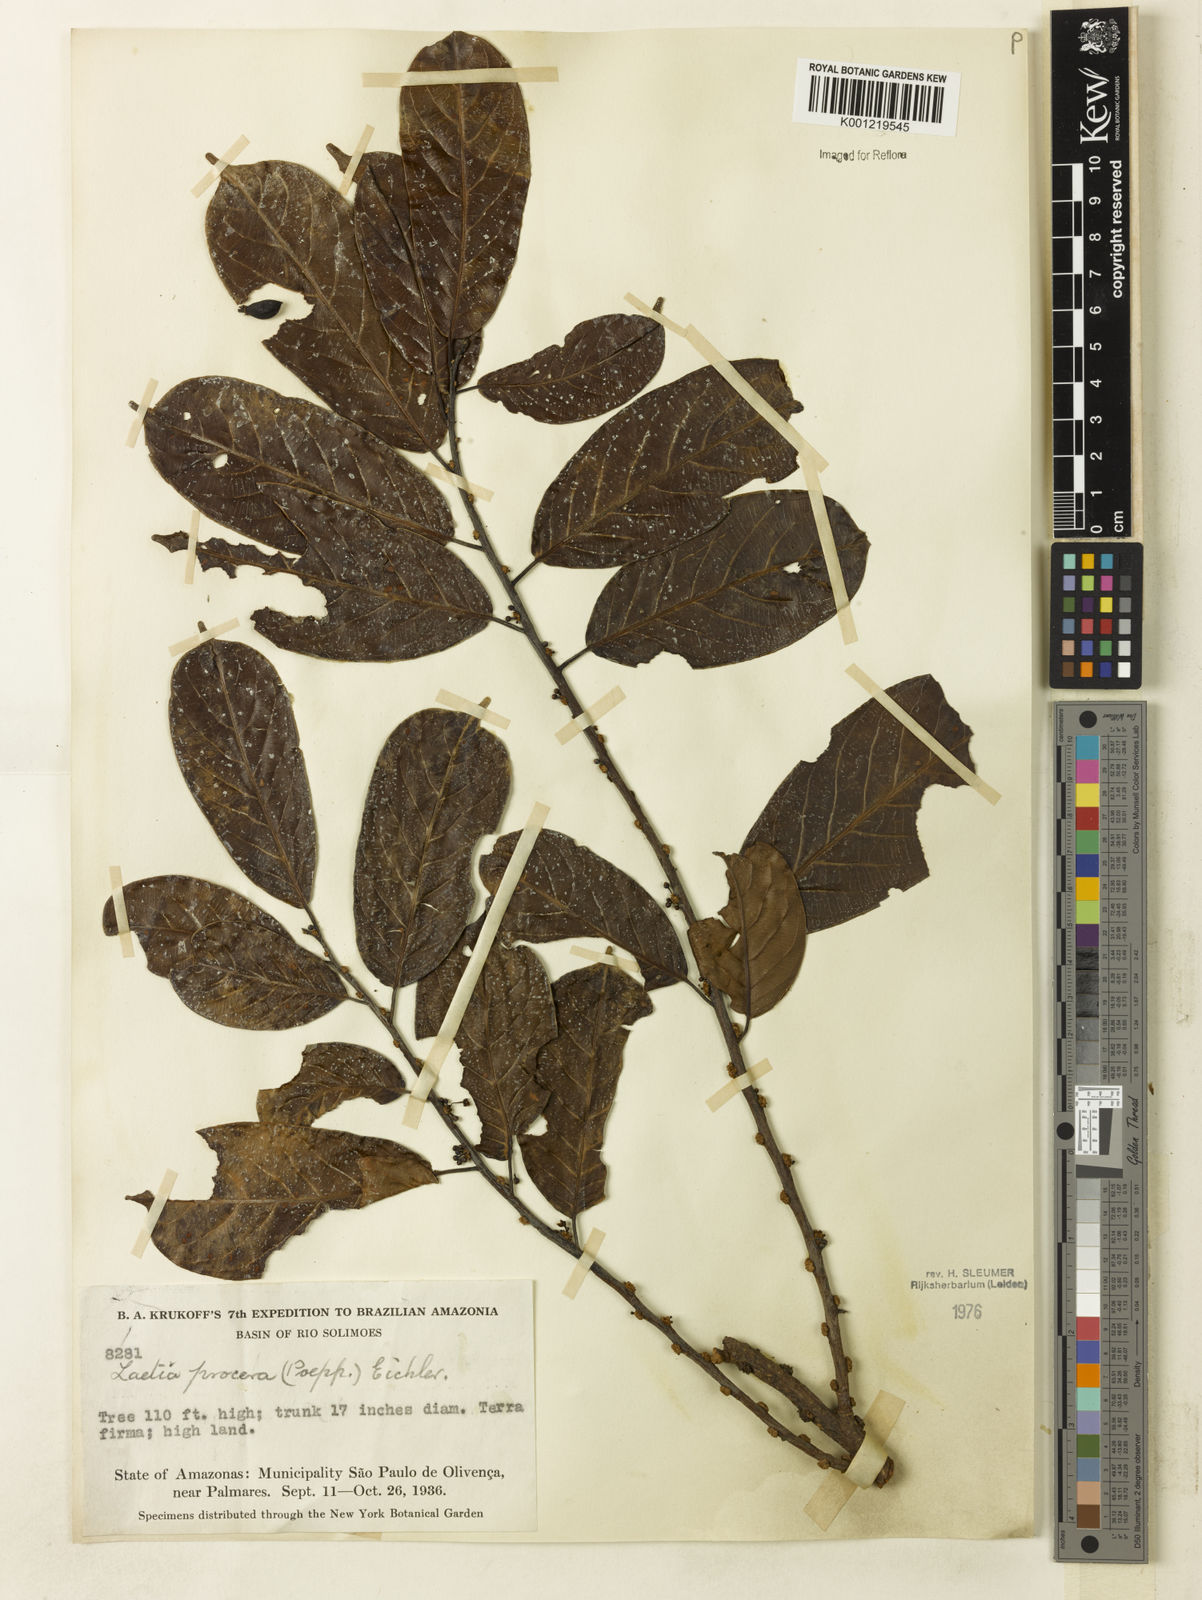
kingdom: Plantae
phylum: Tracheophyta
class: Magnoliopsida
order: Malpighiales
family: Salicaceae
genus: Casearia
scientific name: Casearia bicolor
